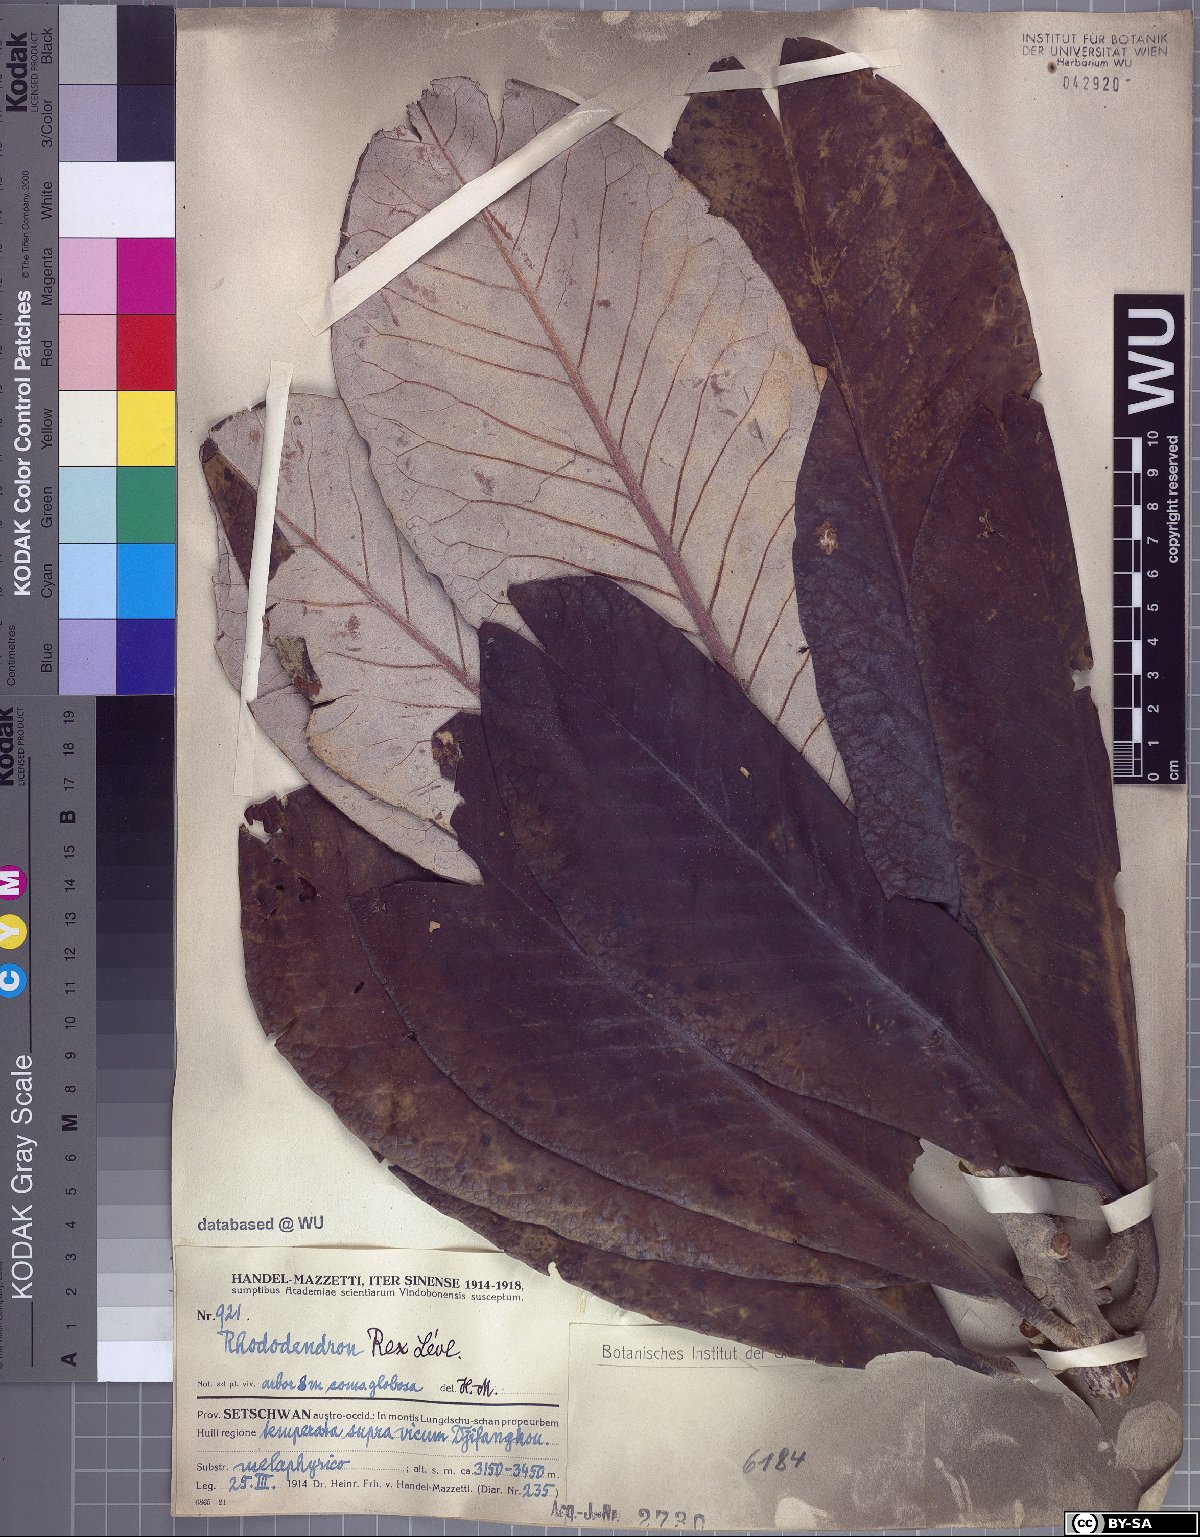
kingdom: Plantae
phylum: Tracheophyta
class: Magnoliopsida
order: Ericales
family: Ericaceae
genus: Rhododendron
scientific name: Rhododendron rex
